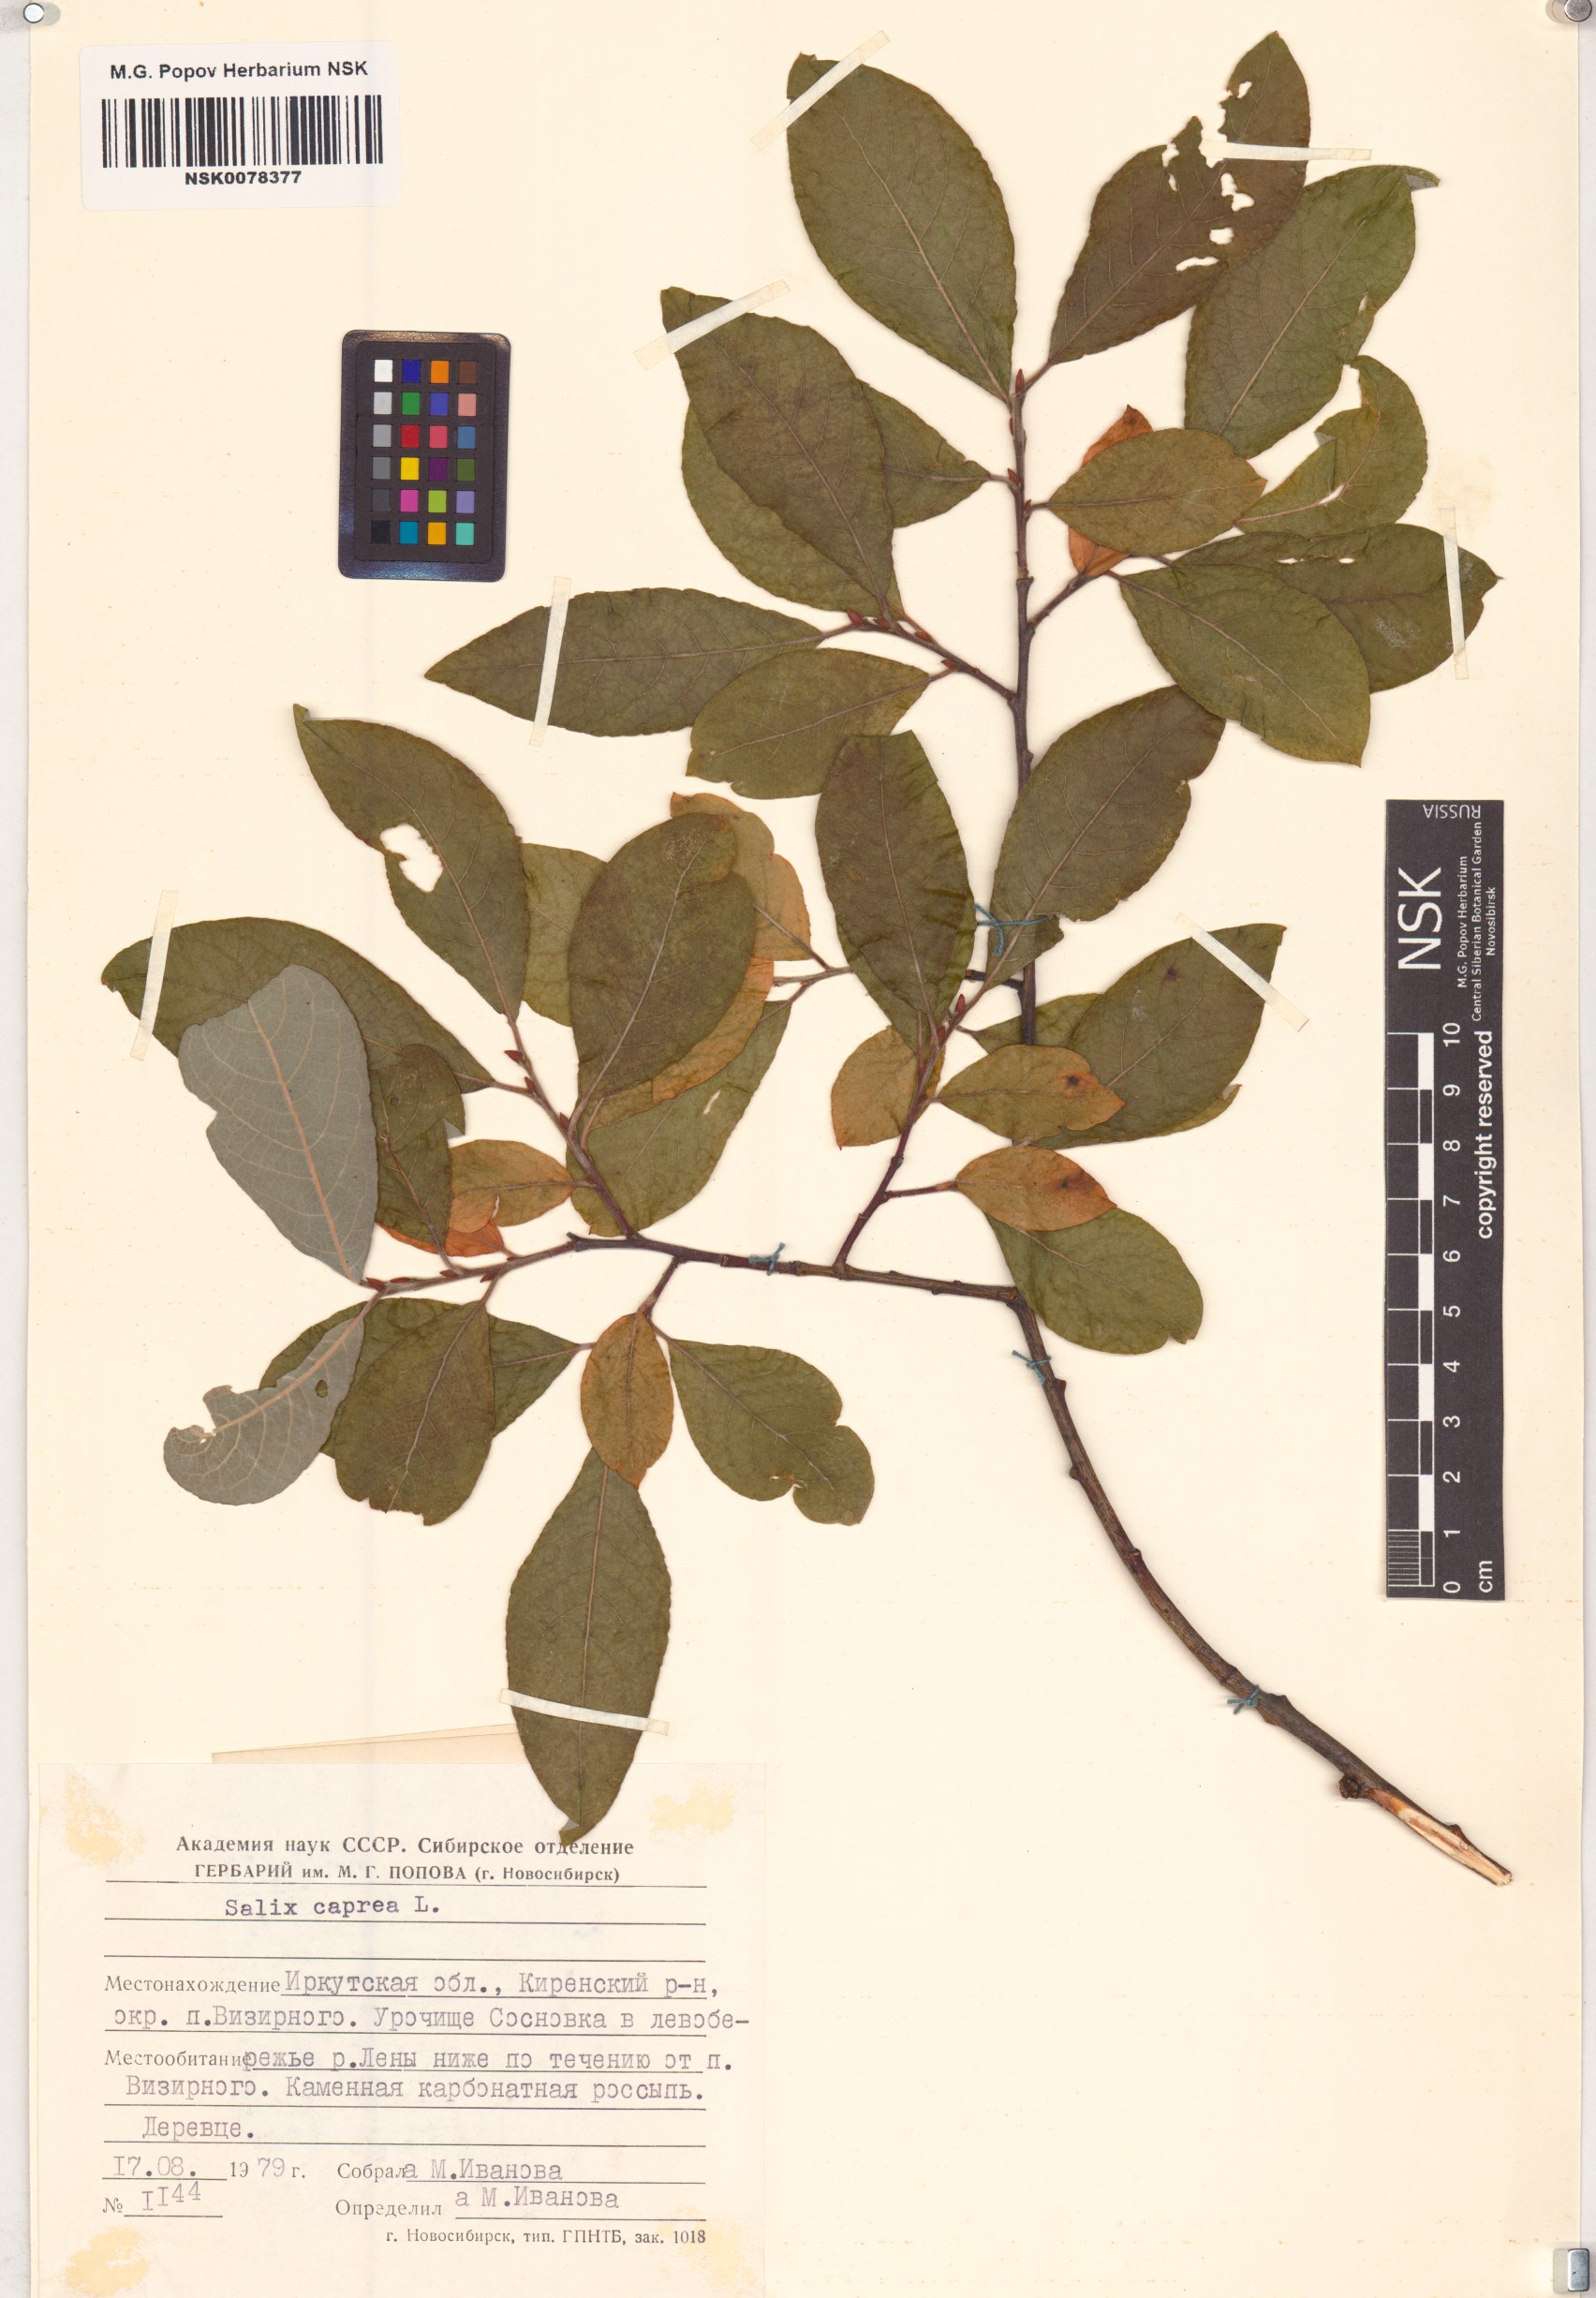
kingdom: Plantae
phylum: Tracheophyta
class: Magnoliopsida
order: Malpighiales
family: Salicaceae
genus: Salix
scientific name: Salix caprea
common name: Goat willow
